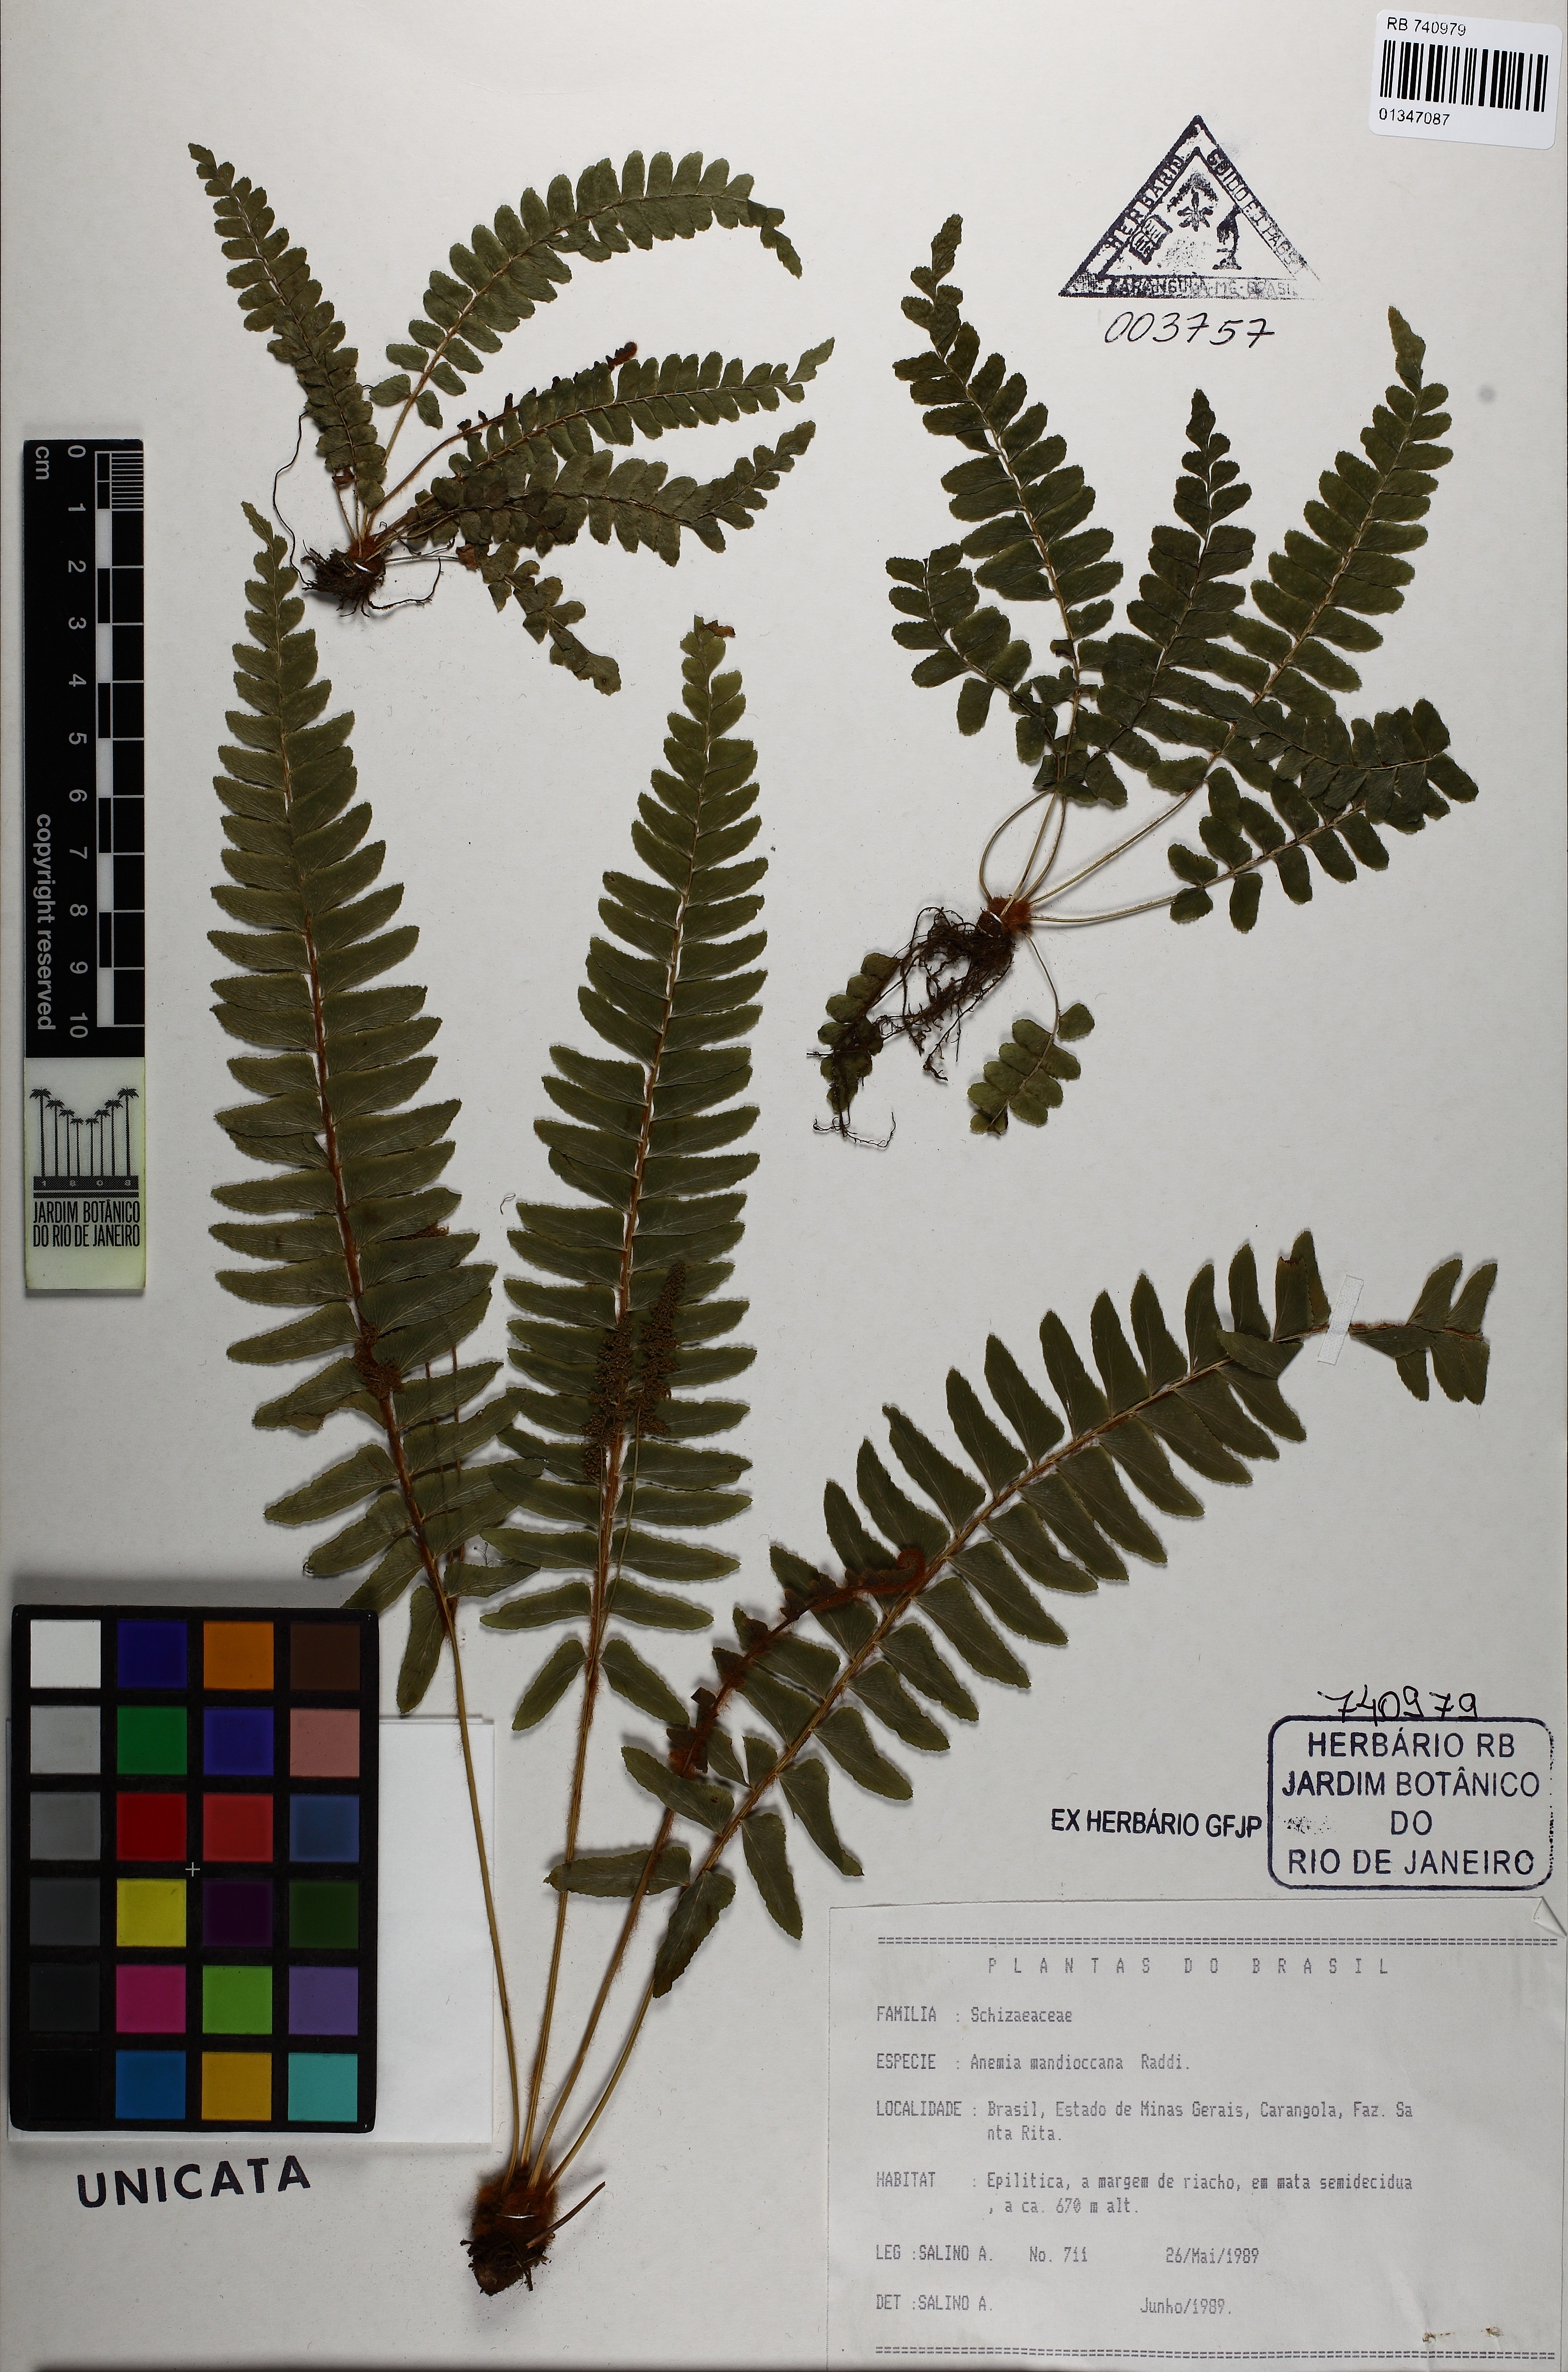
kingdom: Plantae
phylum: Tracheophyta
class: Polypodiopsida
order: Schizaeales
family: Anemiaceae
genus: Anemia
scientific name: Anemia raddiana
